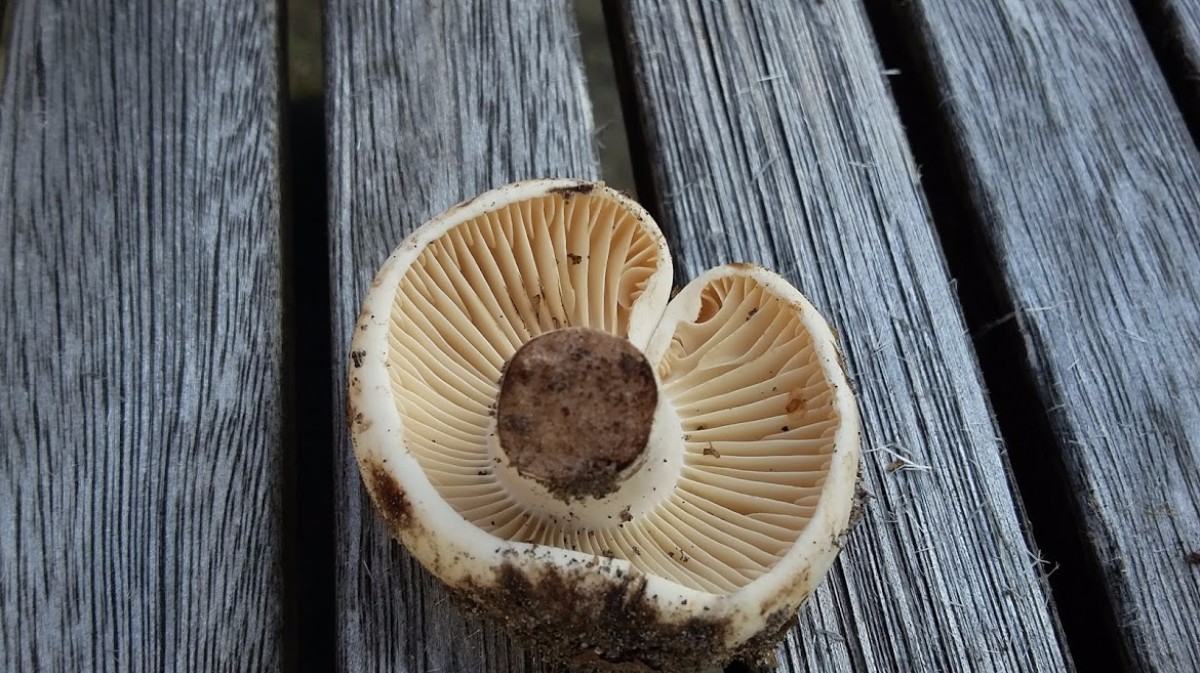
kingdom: Fungi
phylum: Basidiomycota
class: Agaricomycetes
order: Russulales
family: Russulaceae
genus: Russula
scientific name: Russula adusta
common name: sværtende skørhat
